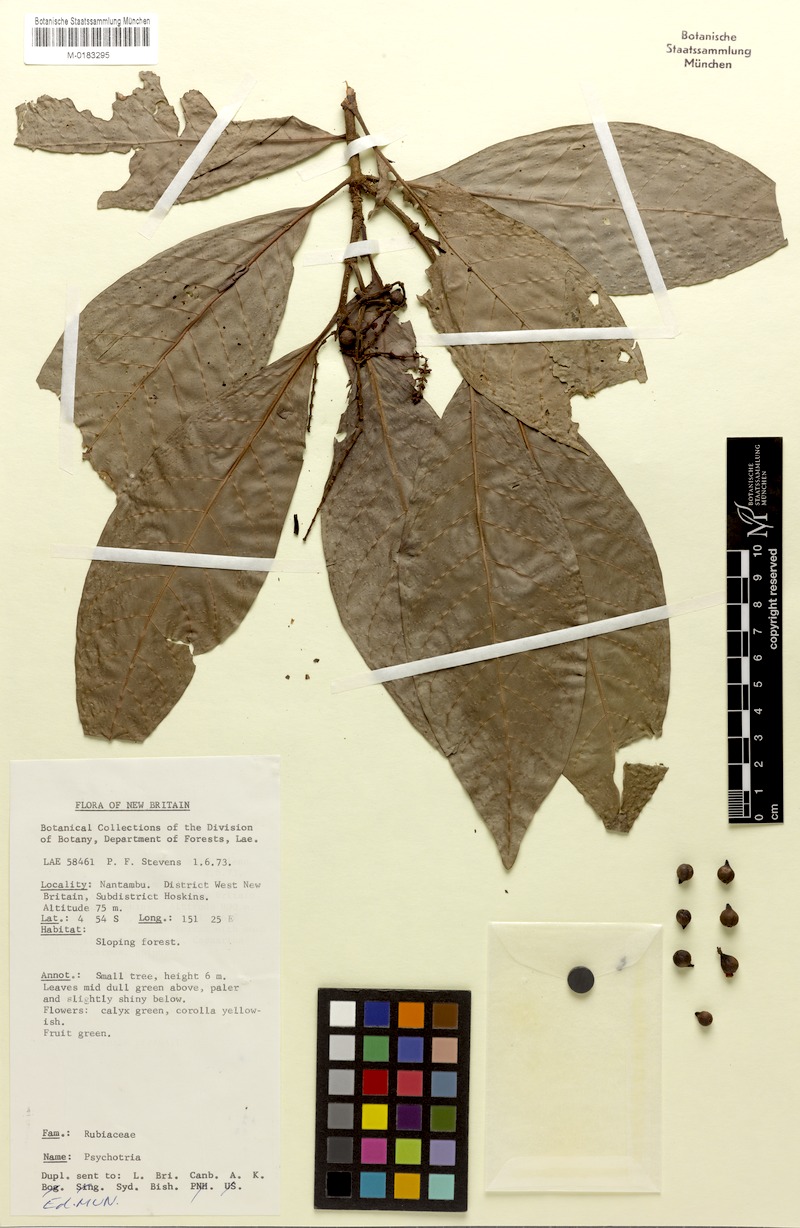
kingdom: Plantae
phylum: Tracheophyta
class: Magnoliopsida
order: Gentianales
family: Rubiaceae
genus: Psychotria
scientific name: Psychotria leleana
